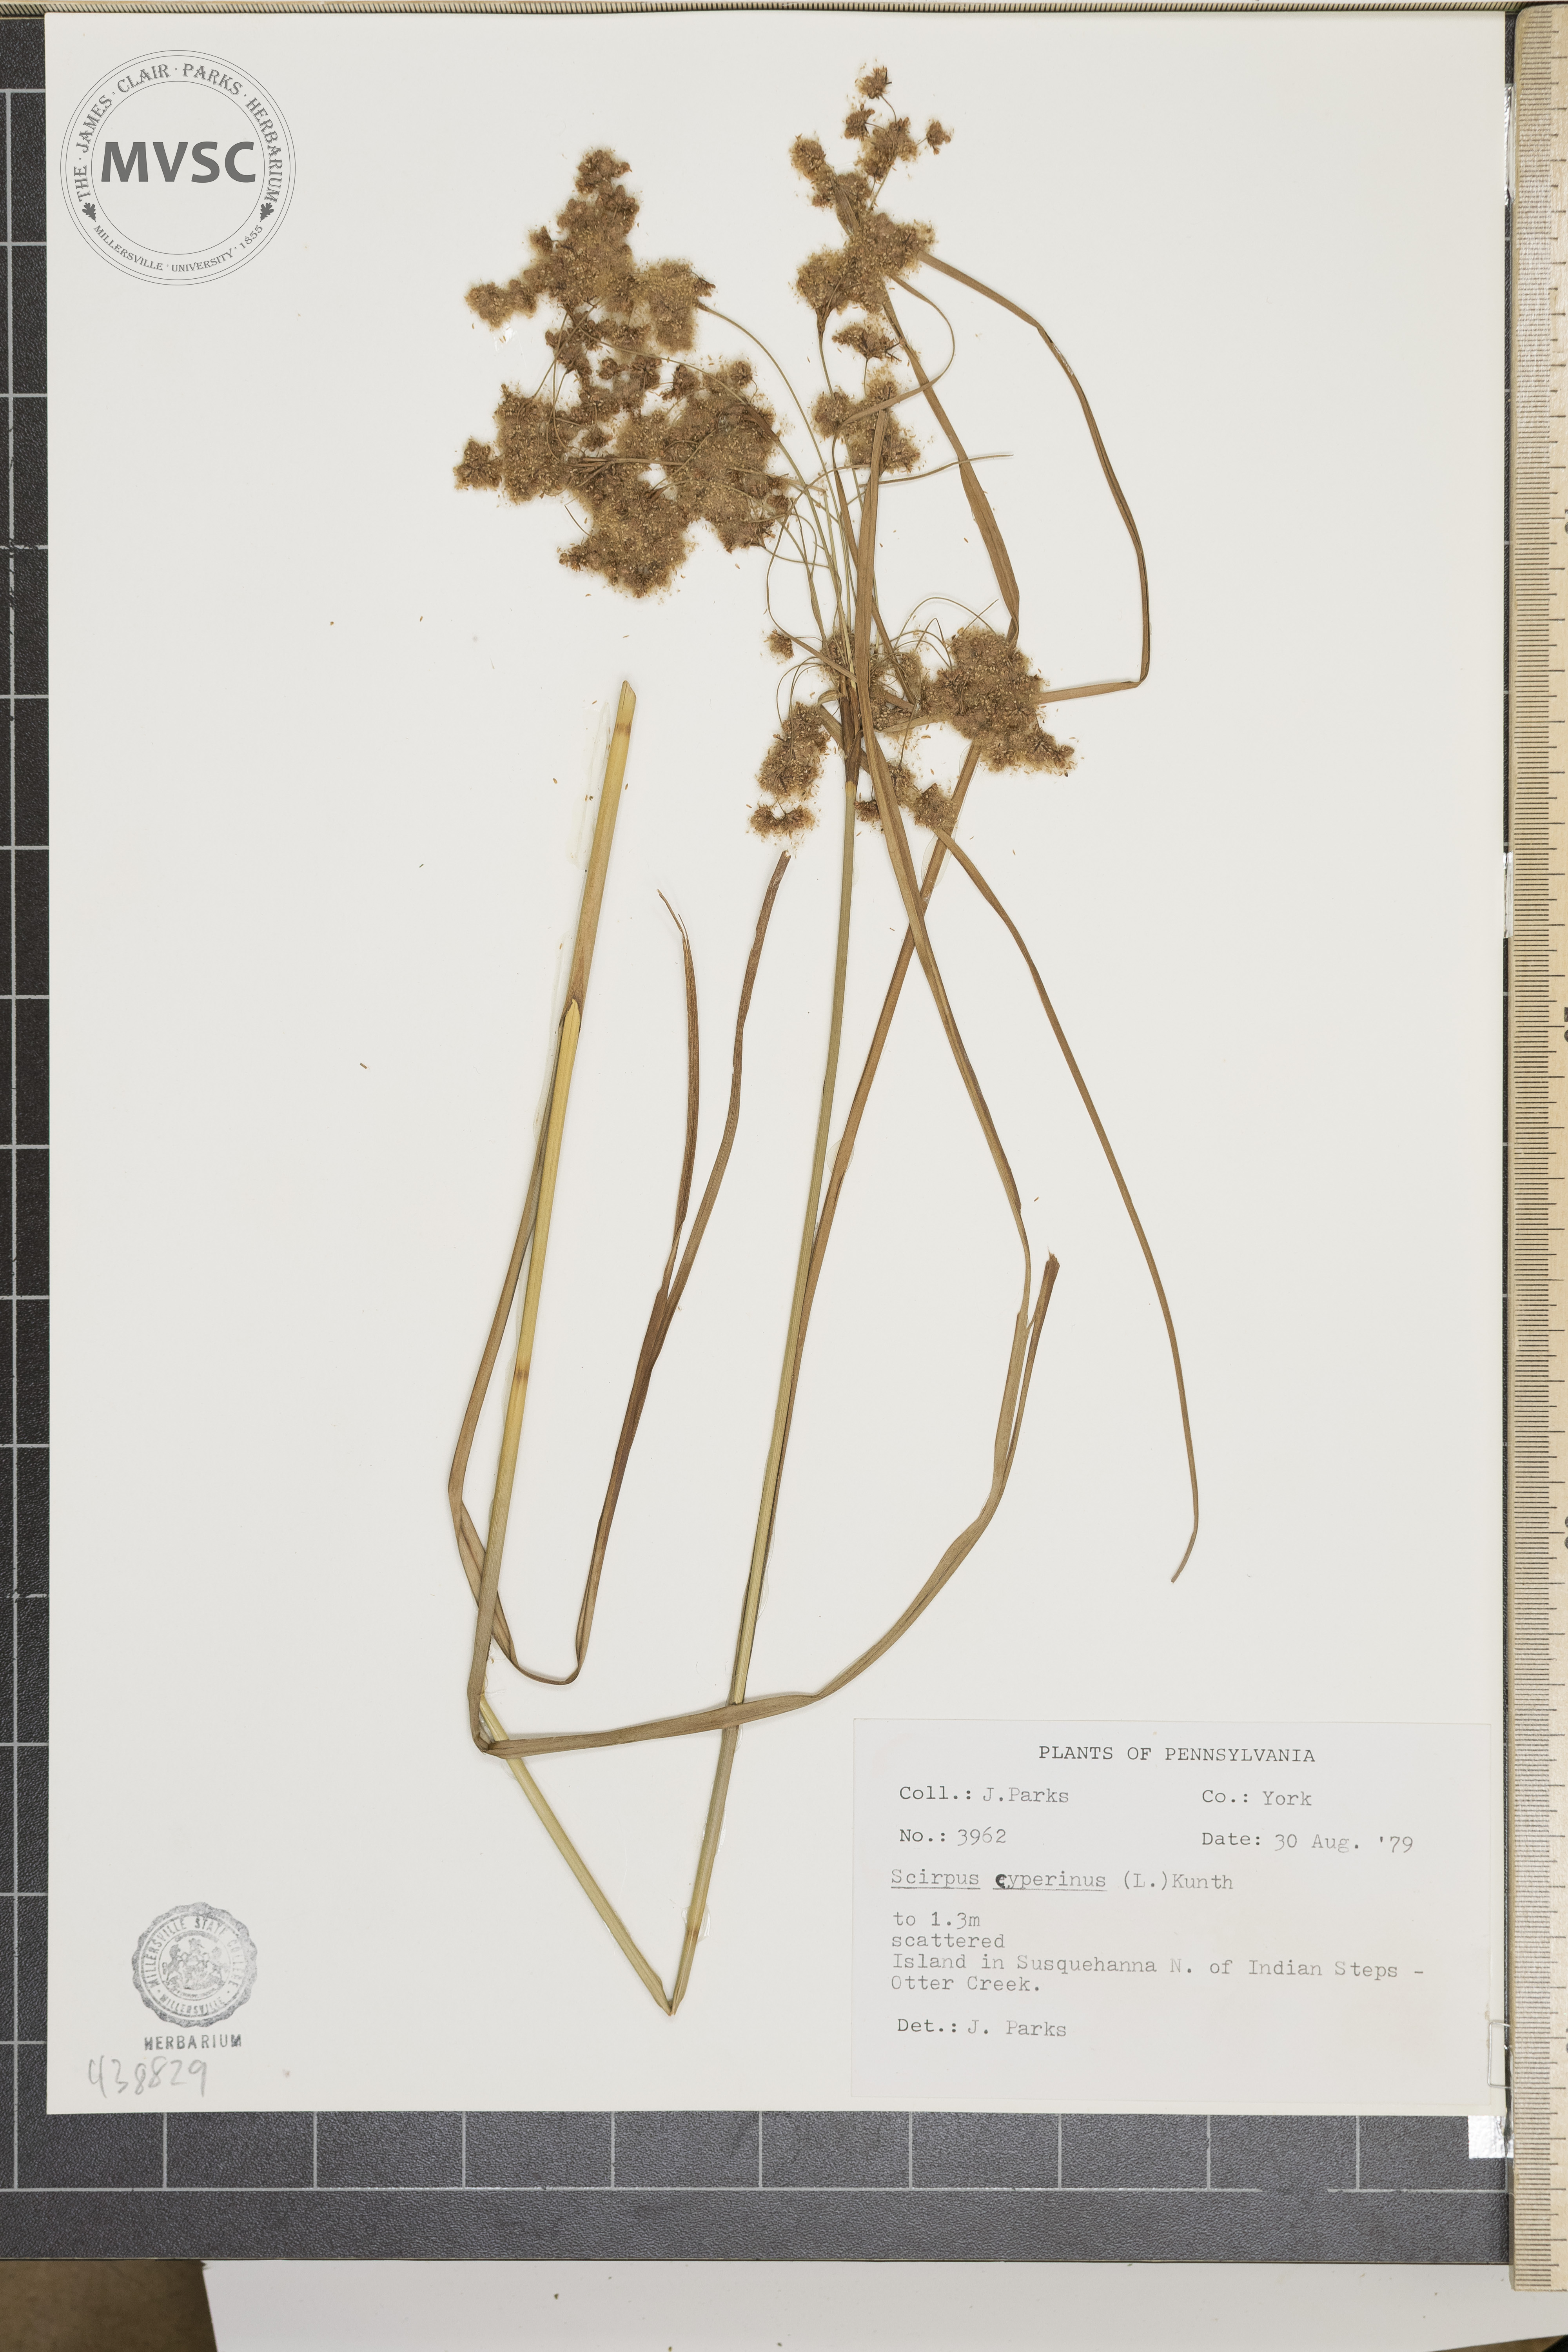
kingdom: Plantae
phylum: Tracheophyta
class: Liliopsida
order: Poales
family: Cyperaceae
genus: Scirpus
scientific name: Scirpus cyperinus
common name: Black-sheathed bulrush
